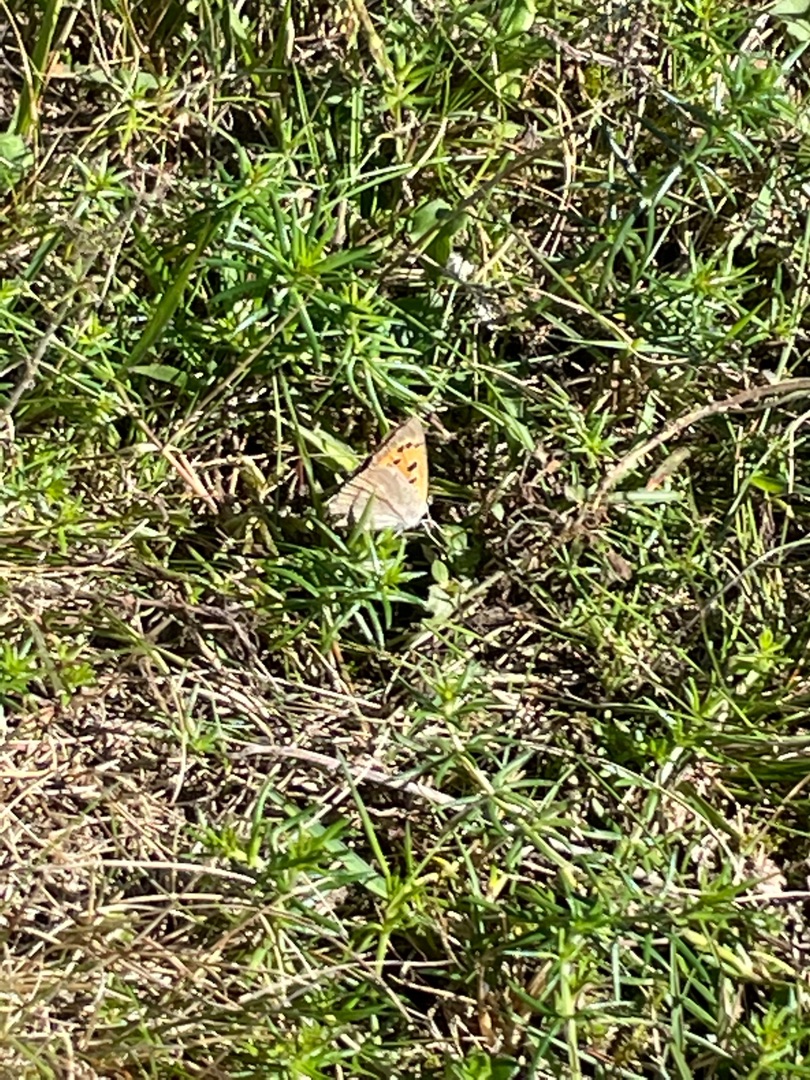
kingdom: Animalia
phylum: Arthropoda
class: Insecta
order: Lepidoptera
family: Lycaenidae
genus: Lycaena
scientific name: Lycaena phlaeas
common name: Lille ildfugl
